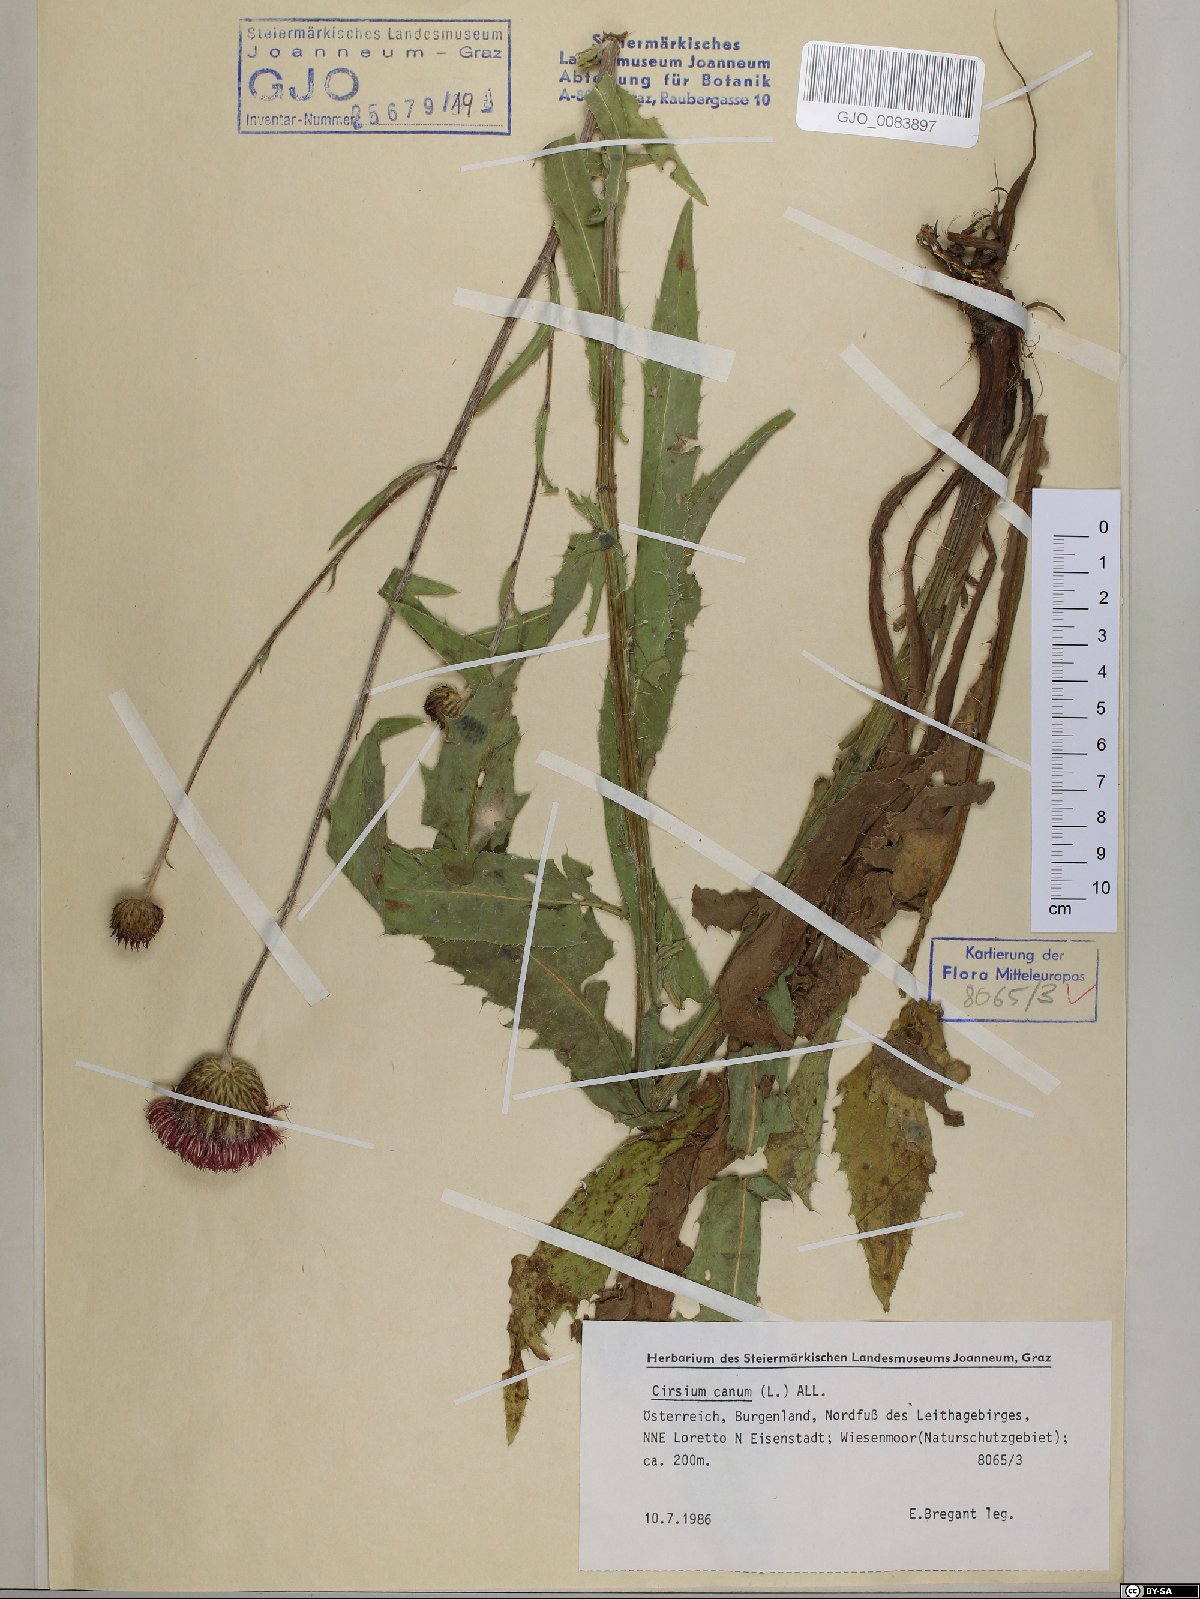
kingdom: Plantae
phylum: Tracheophyta
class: Magnoliopsida
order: Asterales
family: Asteraceae
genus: Cirsium
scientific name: Cirsium canum
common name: Queen anne's thistle
